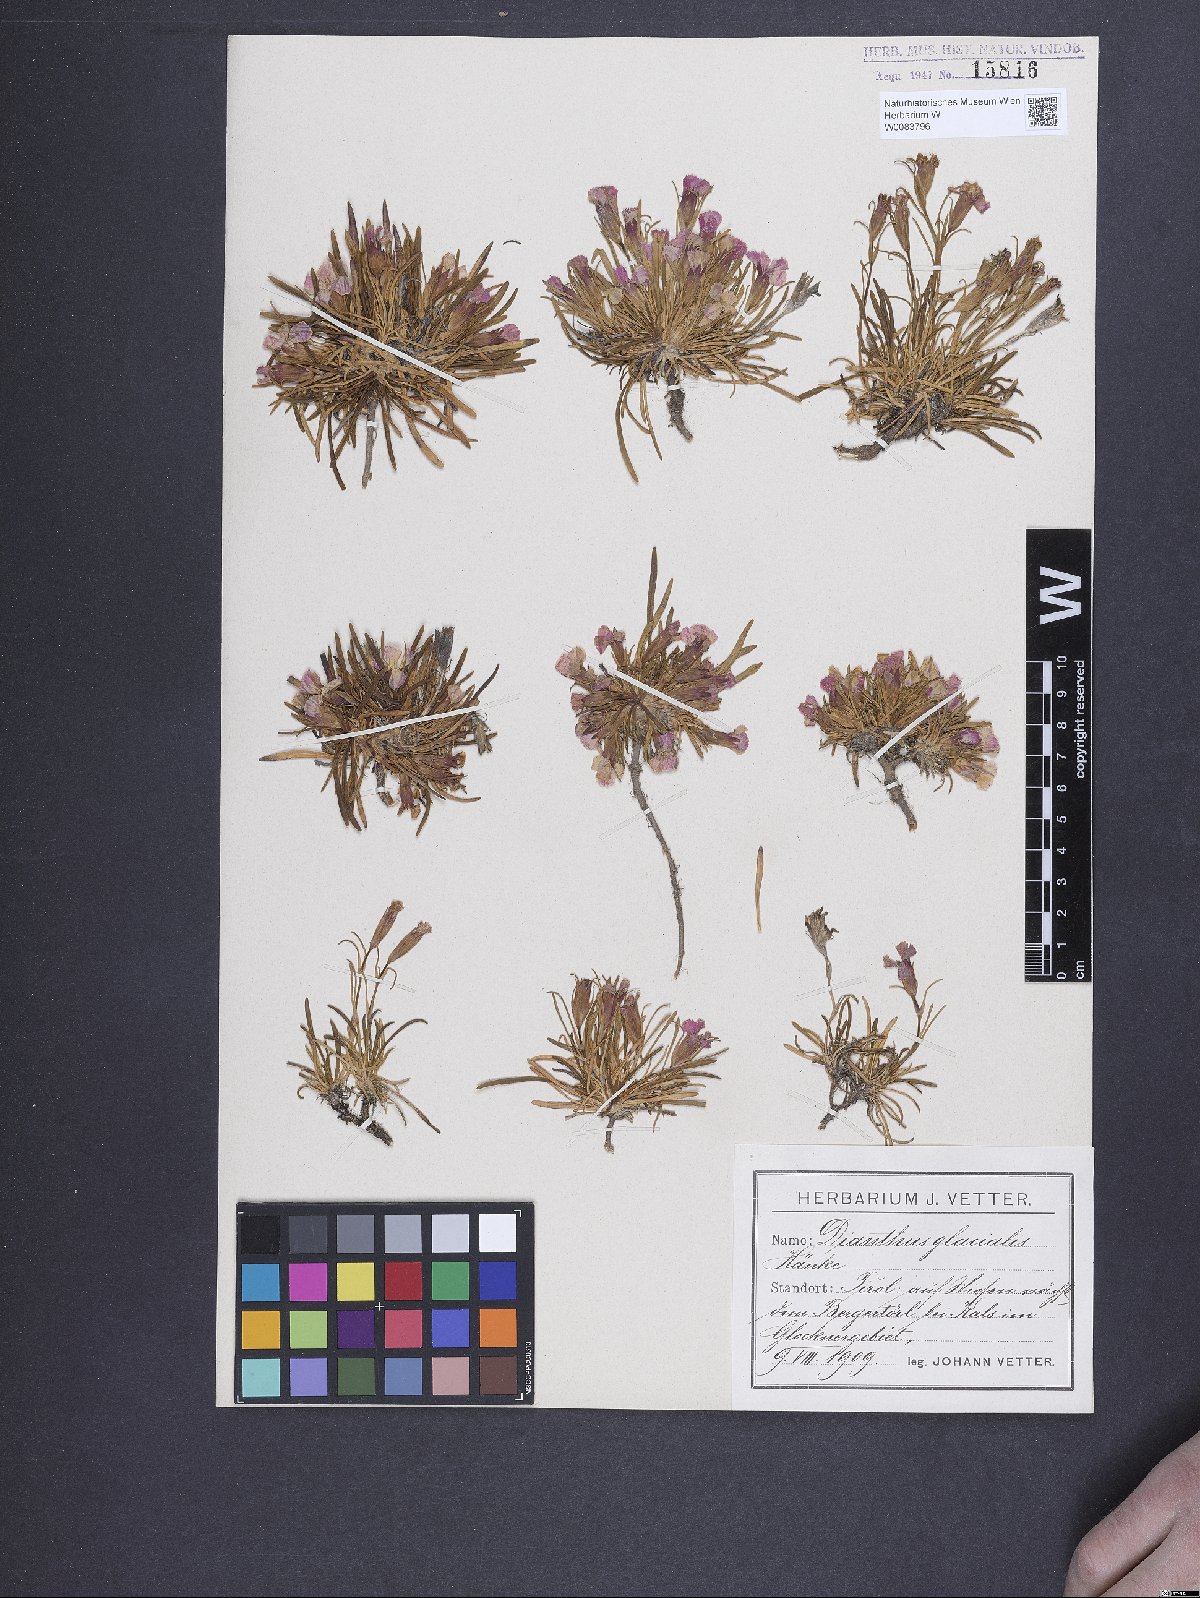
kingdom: Plantae
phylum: Tracheophyta
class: Magnoliopsida
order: Caryophyllales
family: Caryophyllaceae
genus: Dianthus
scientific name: Dianthus glacialis
